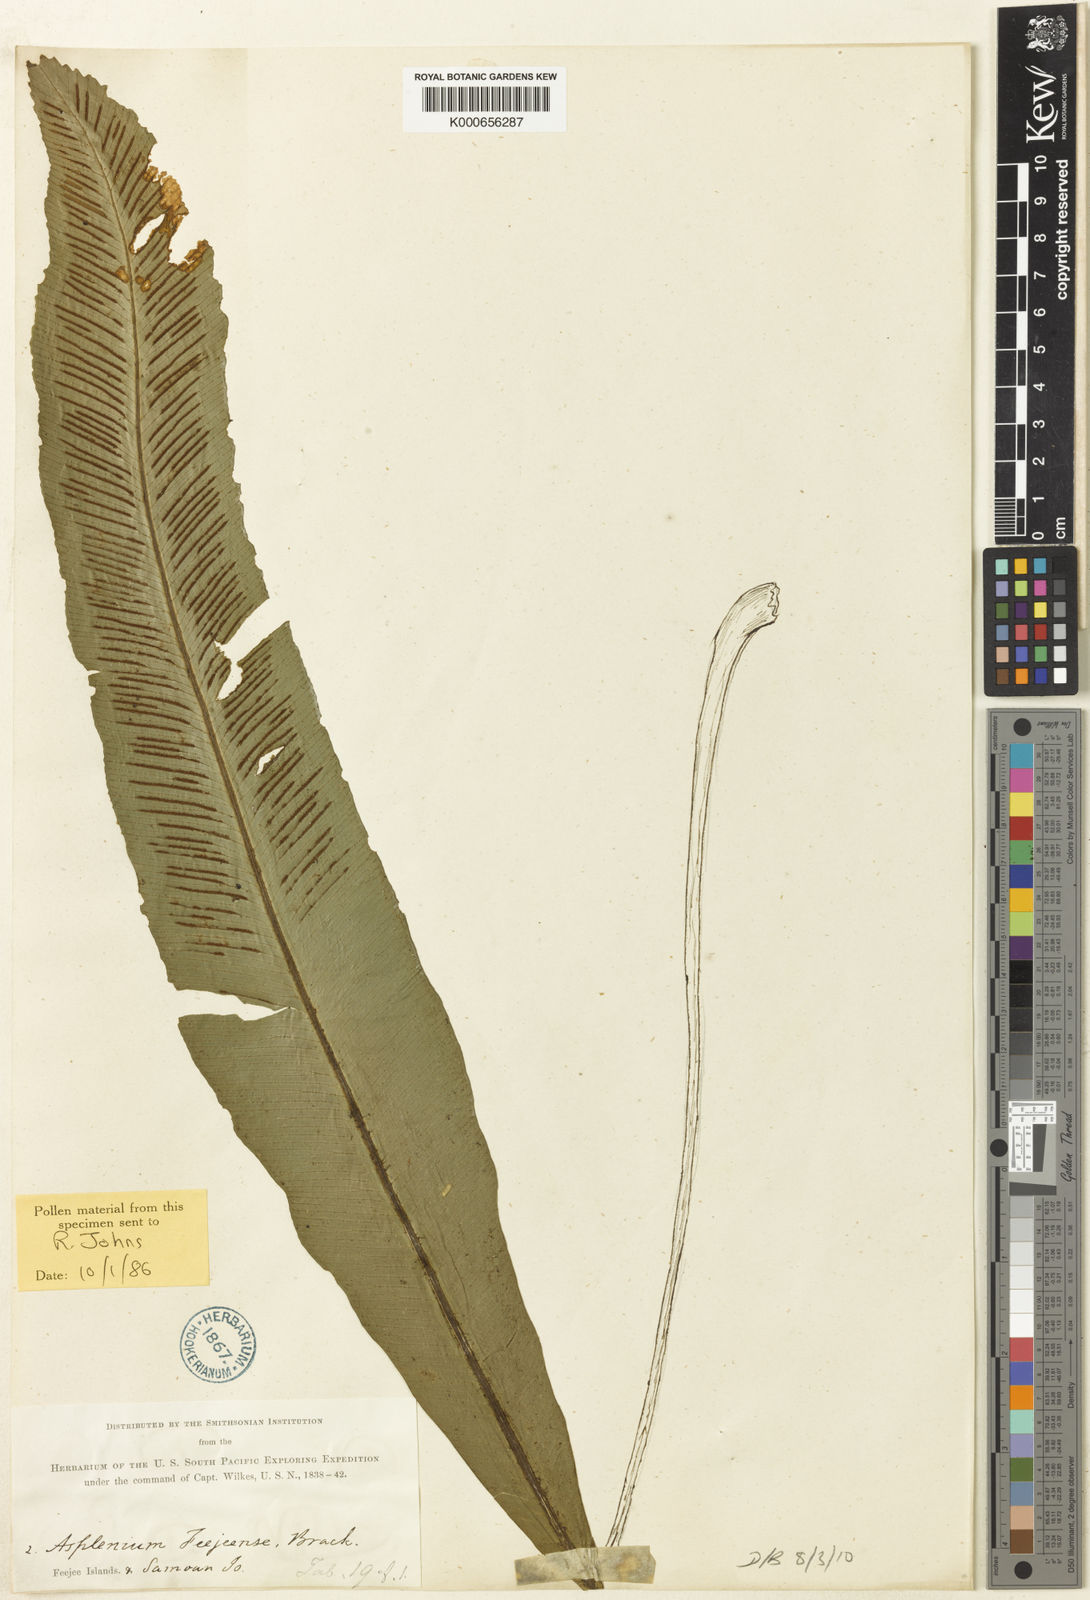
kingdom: Plantae
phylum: Tracheophyta
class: Polypodiopsida
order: Polypodiales
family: Aspleniaceae
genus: Asplenium
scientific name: Asplenium amboinense
